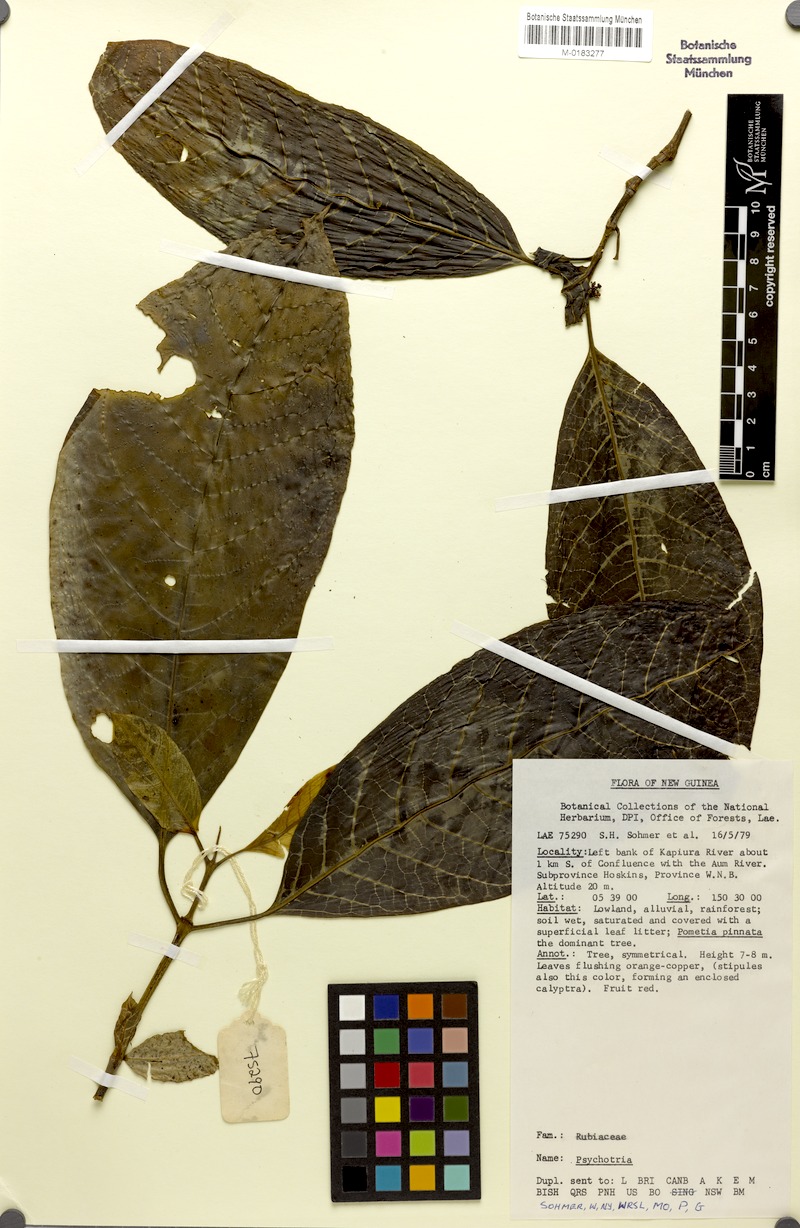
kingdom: Plantae
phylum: Tracheophyta
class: Magnoliopsida
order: Gentianales
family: Rubiaceae
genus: Eumachia
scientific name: Eumachia damasiana
